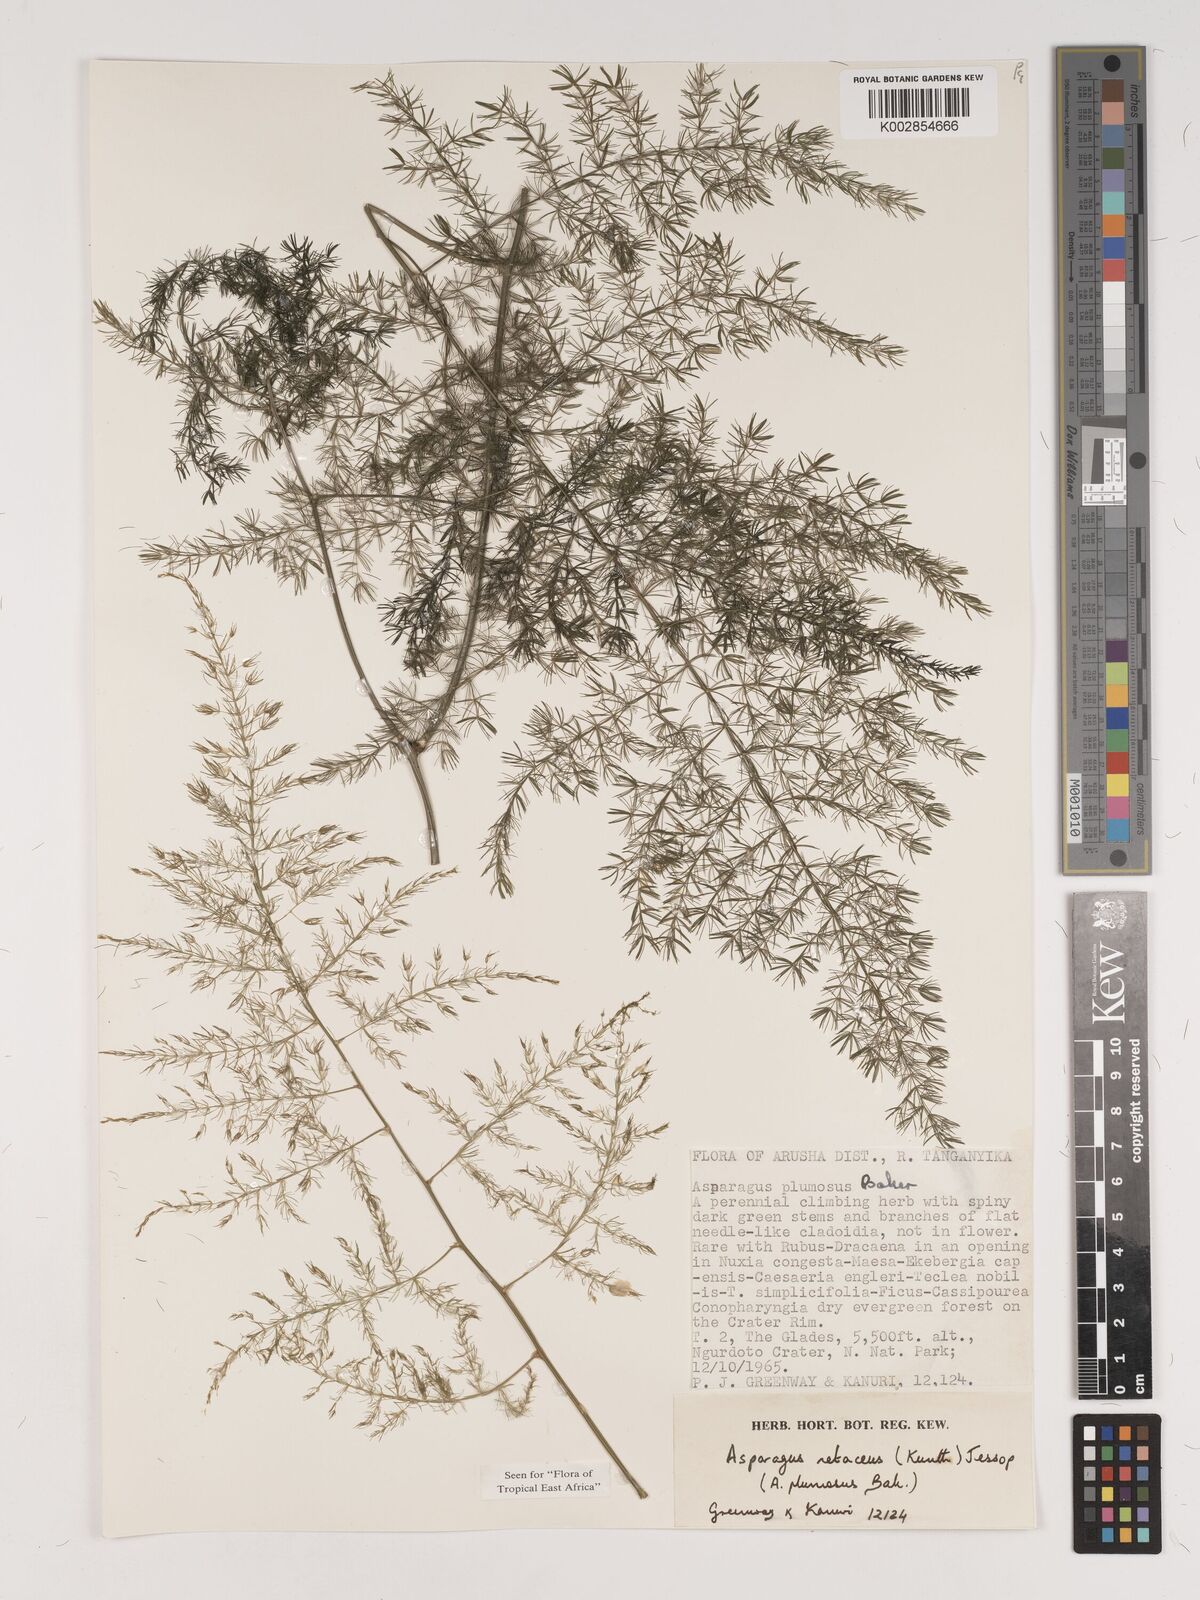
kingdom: Plantae
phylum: Tracheophyta
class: Liliopsida
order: Asparagales
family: Asparagaceae
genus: Asparagus
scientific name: Asparagus setaceus
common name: Common asparagus fern
